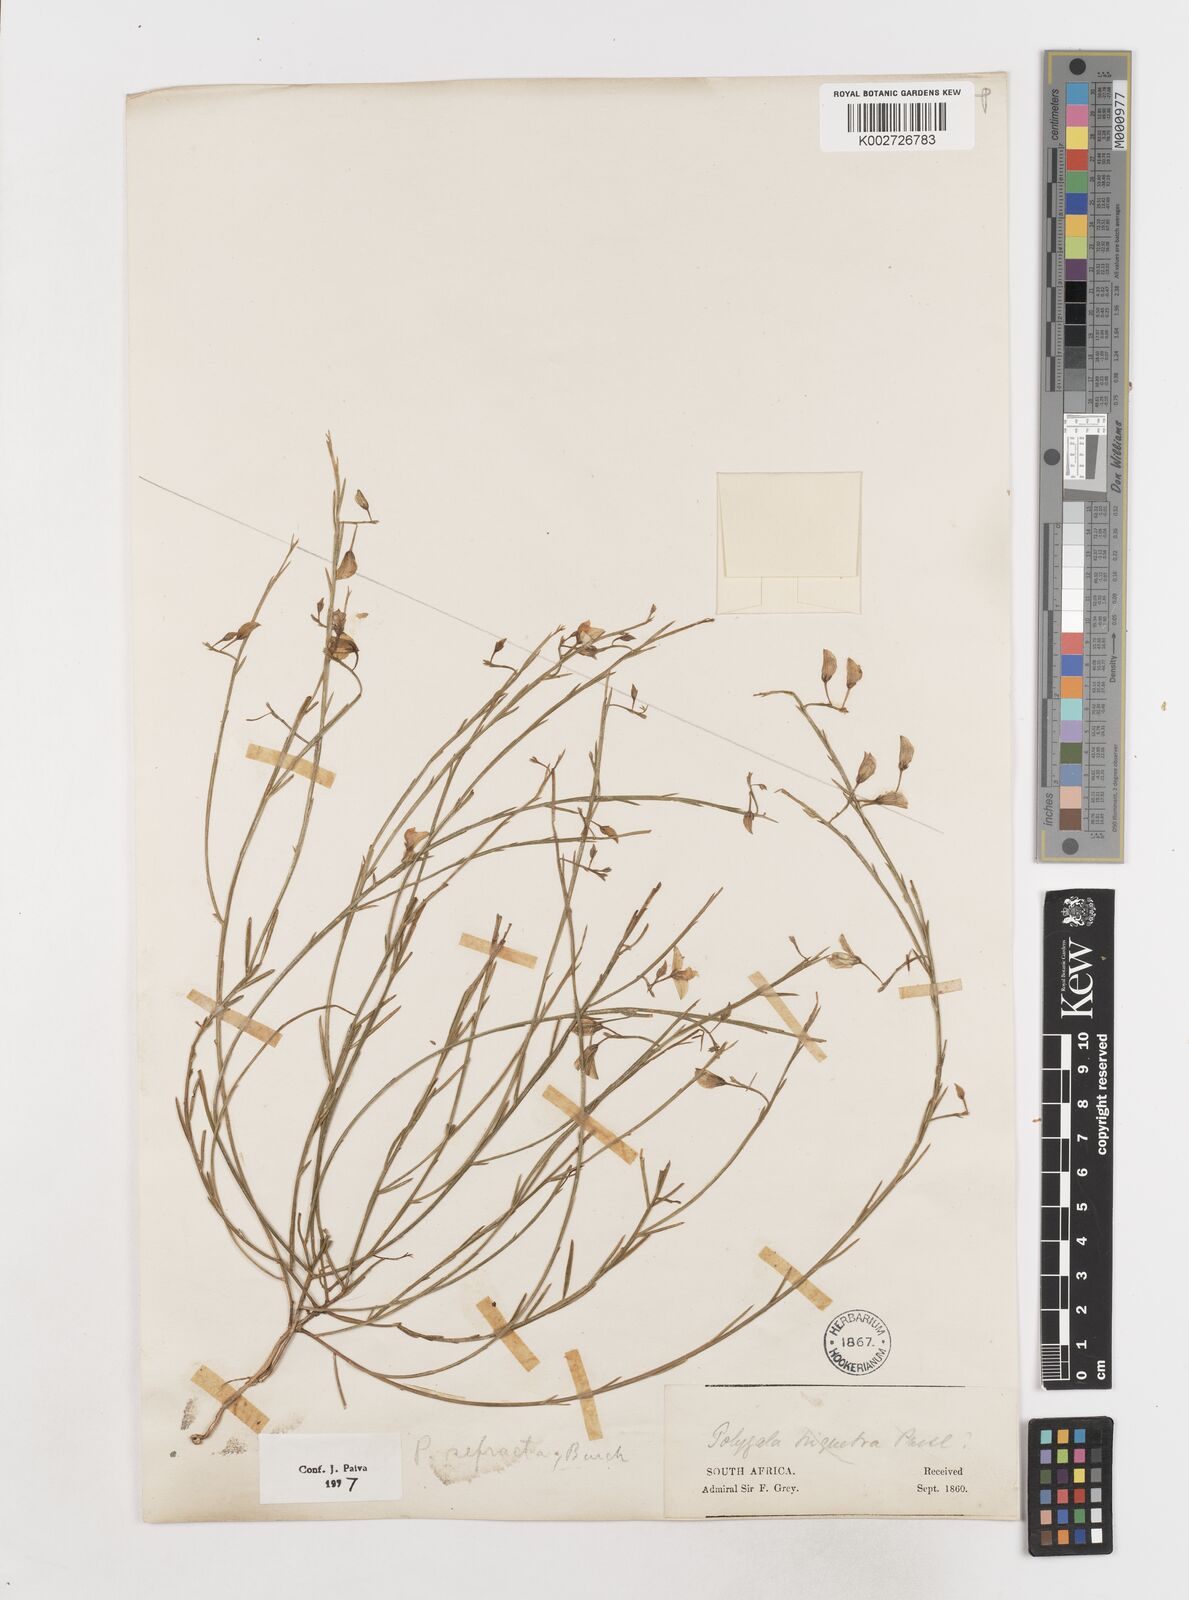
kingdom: Plantae
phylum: Tracheophyta
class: Magnoliopsida
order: Fabales
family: Polygalaceae
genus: Polygala
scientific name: Polygala refracta
